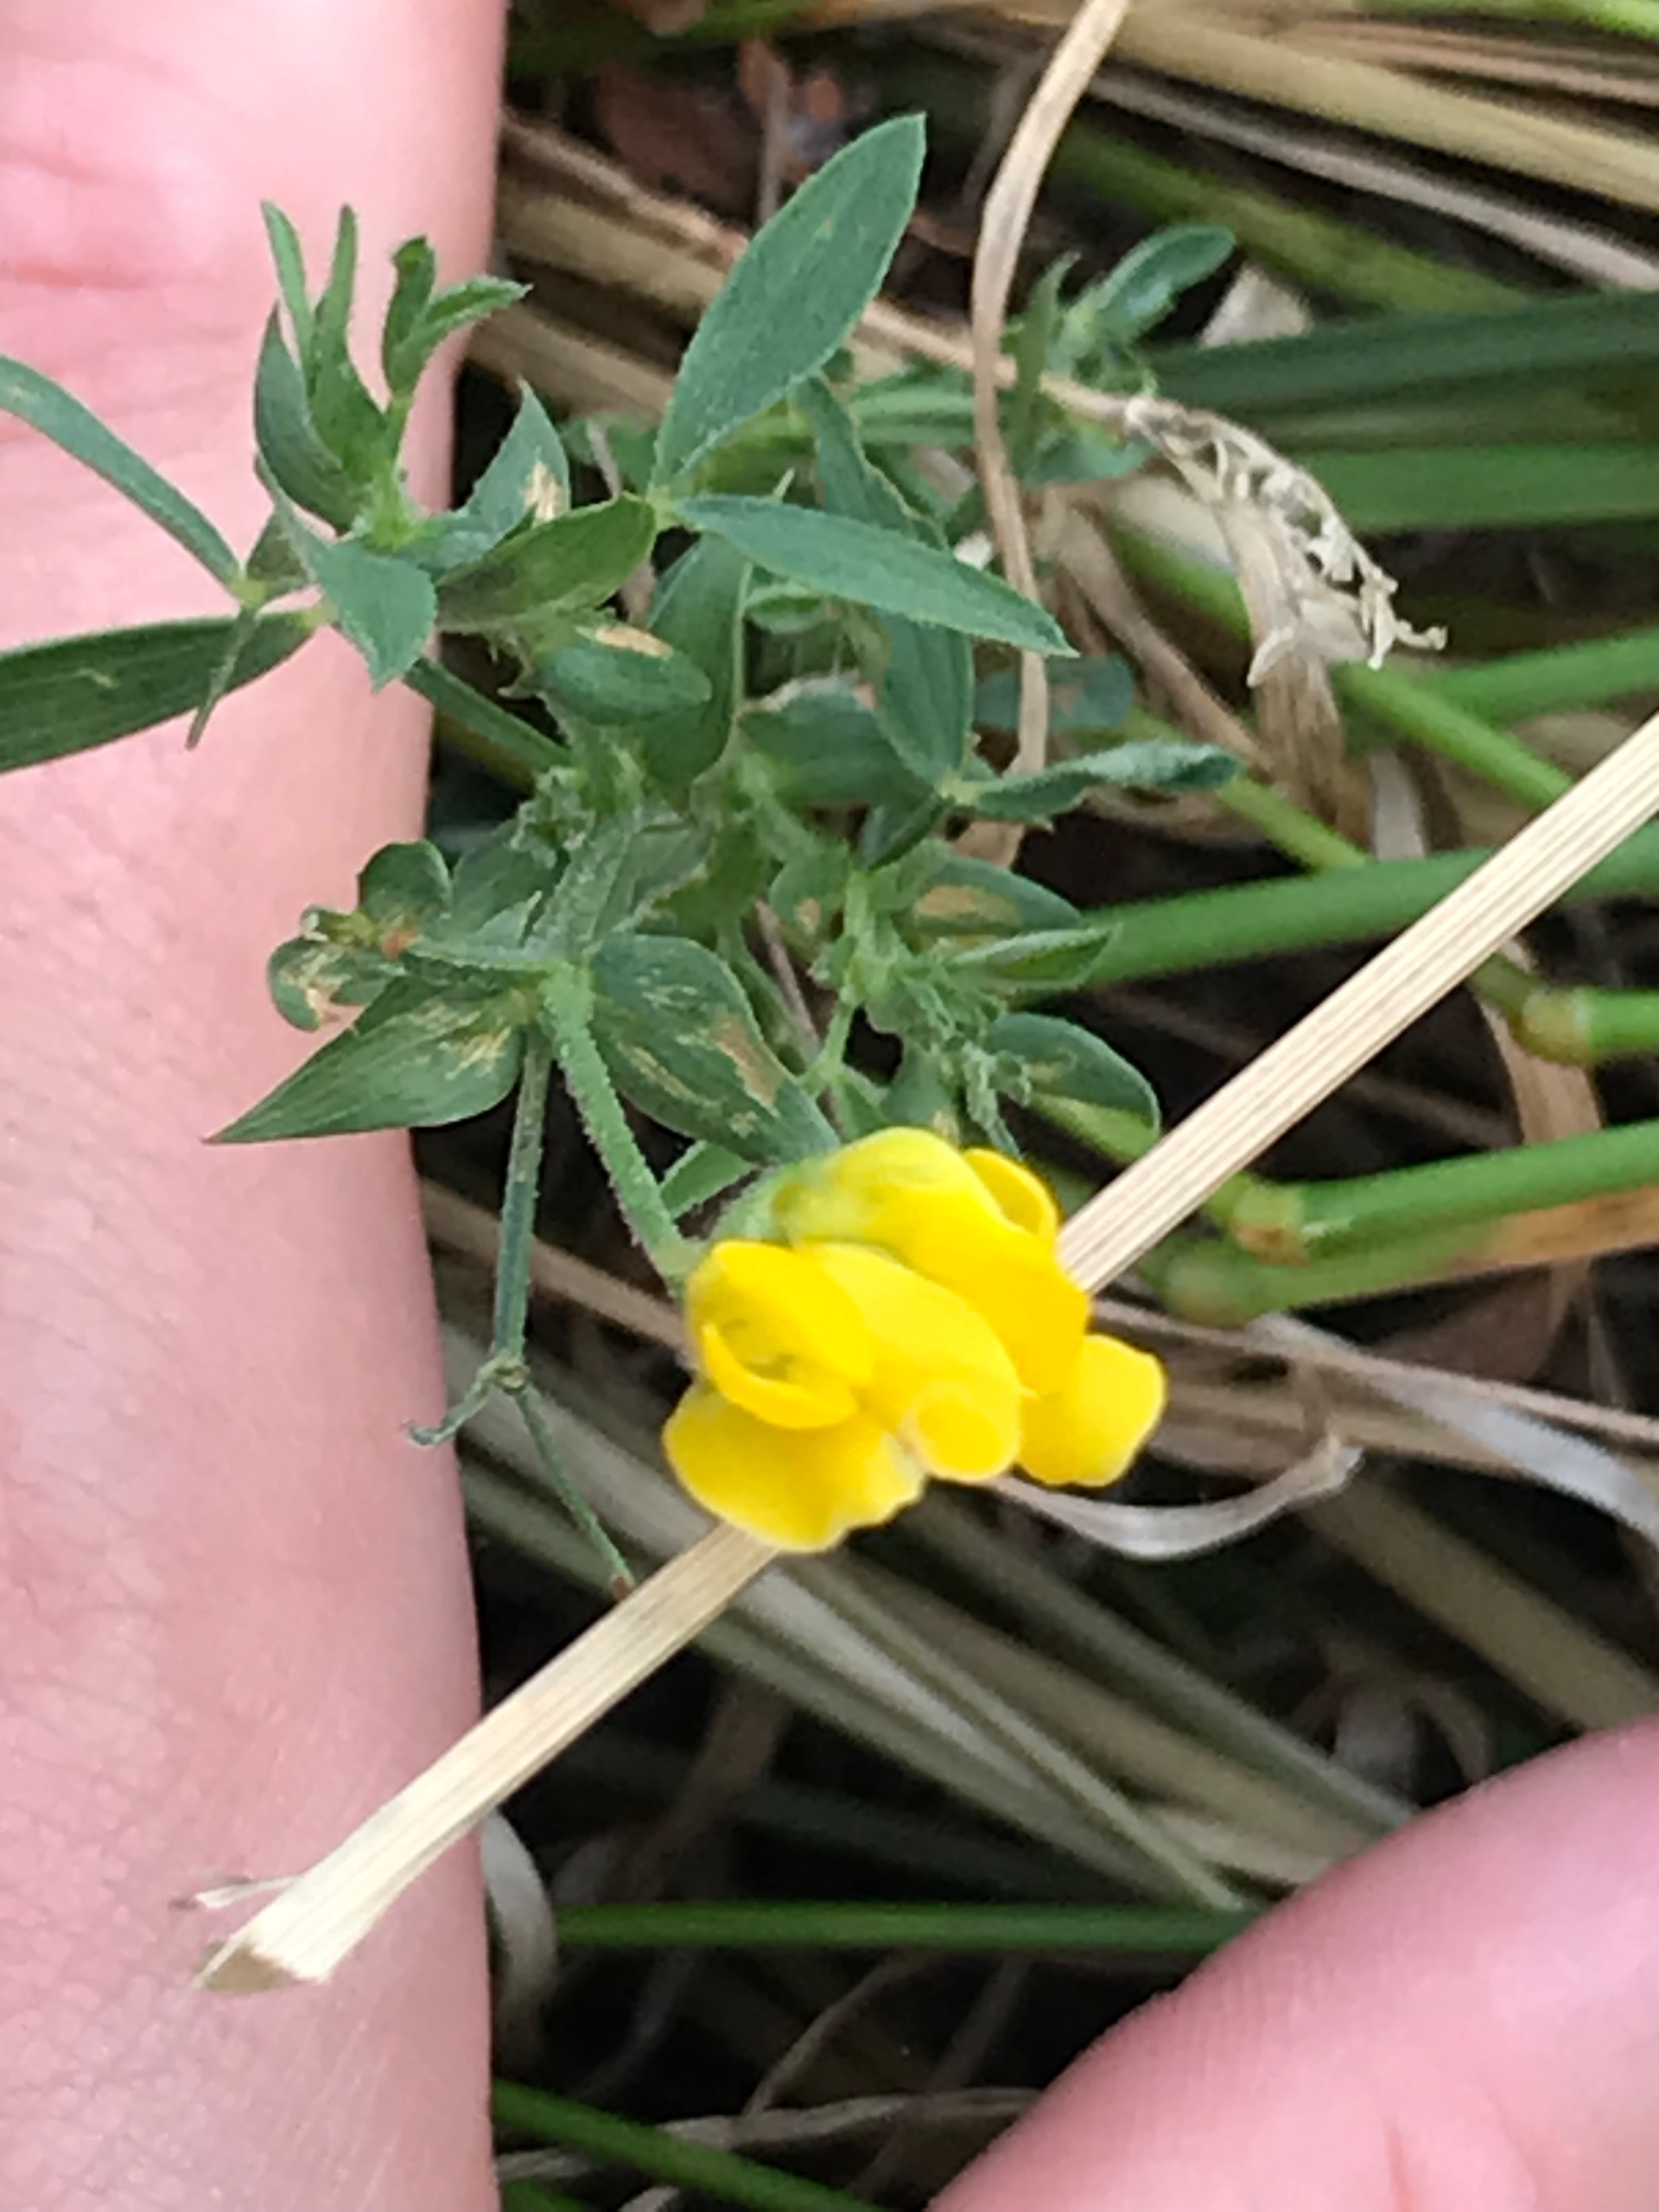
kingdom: Plantae
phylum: Tracheophyta
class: Magnoliopsida
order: Fabales
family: Fabaceae
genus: Lathyrus
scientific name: Lathyrus pratensis
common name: Gul fladbælg
